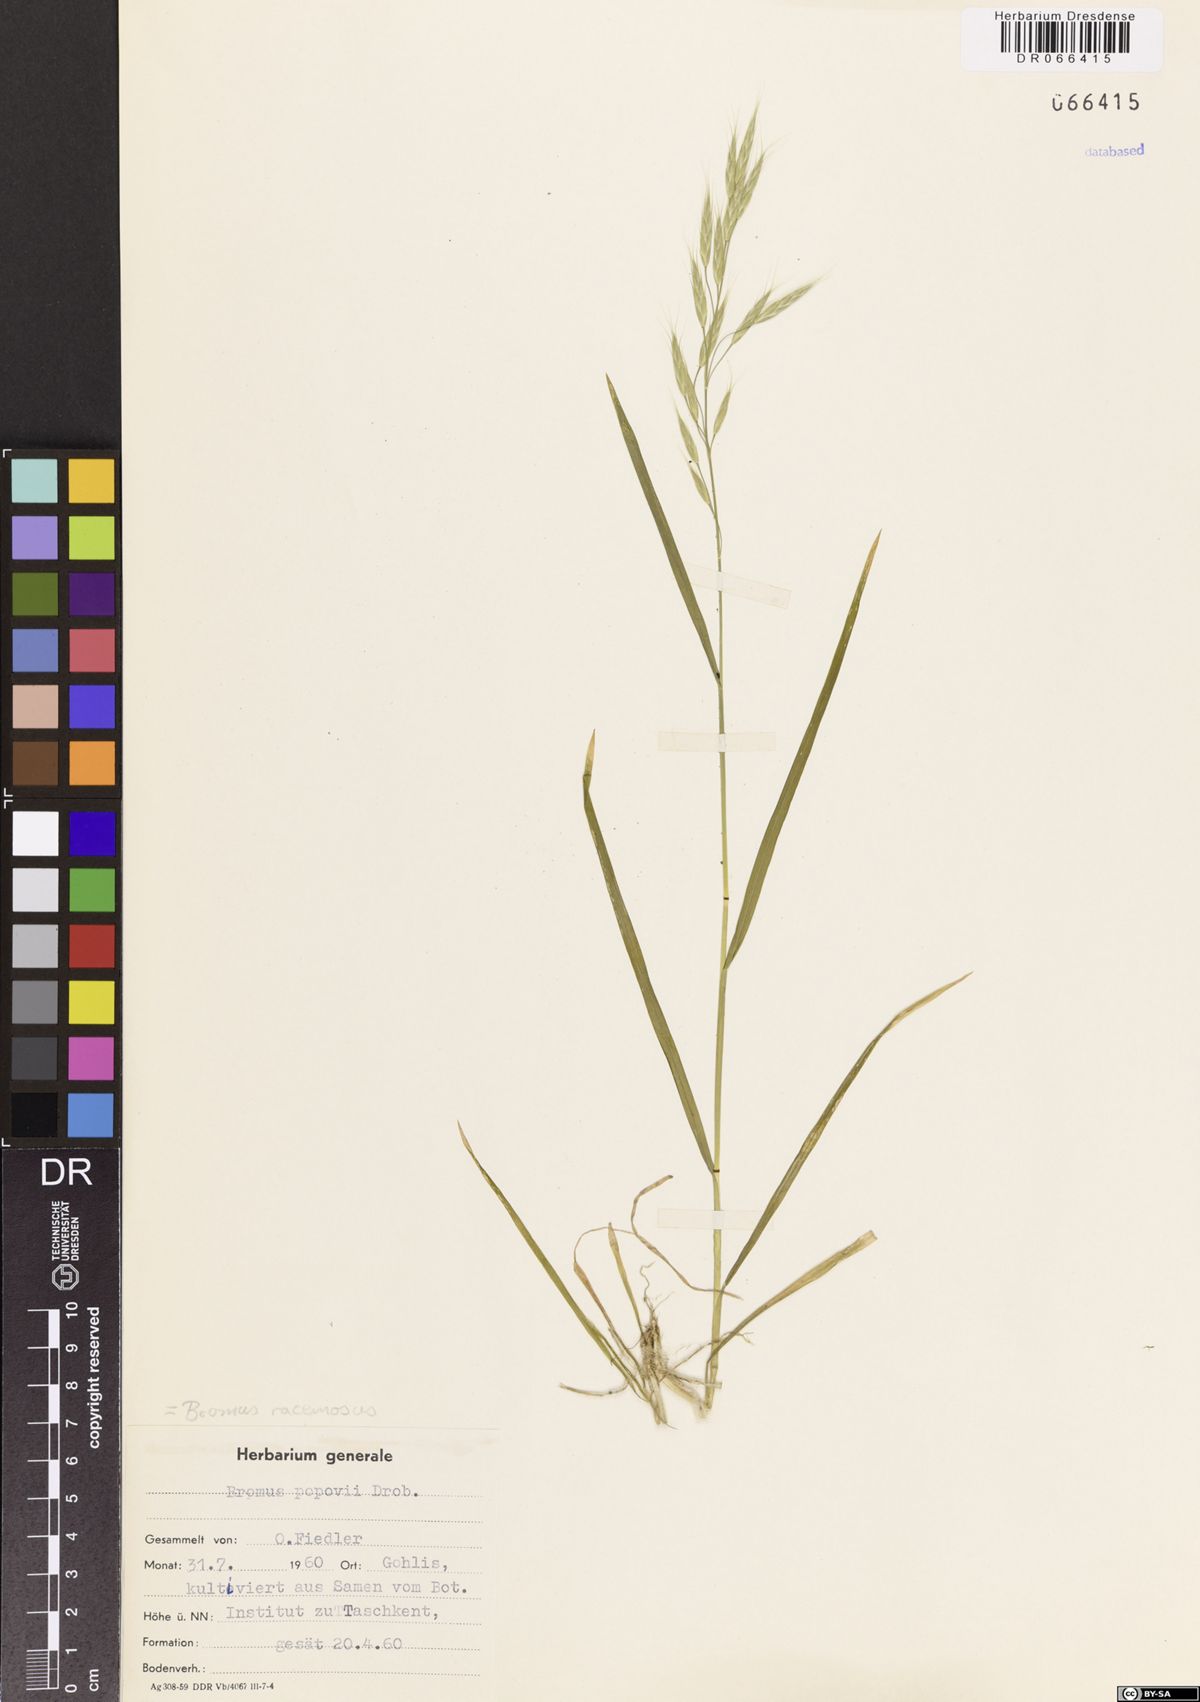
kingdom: Plantae
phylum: Tracheophyta
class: Liliopsida
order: Poales
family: Poaceae
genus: Bromus
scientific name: Bromus racemosus
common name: Bald brome
